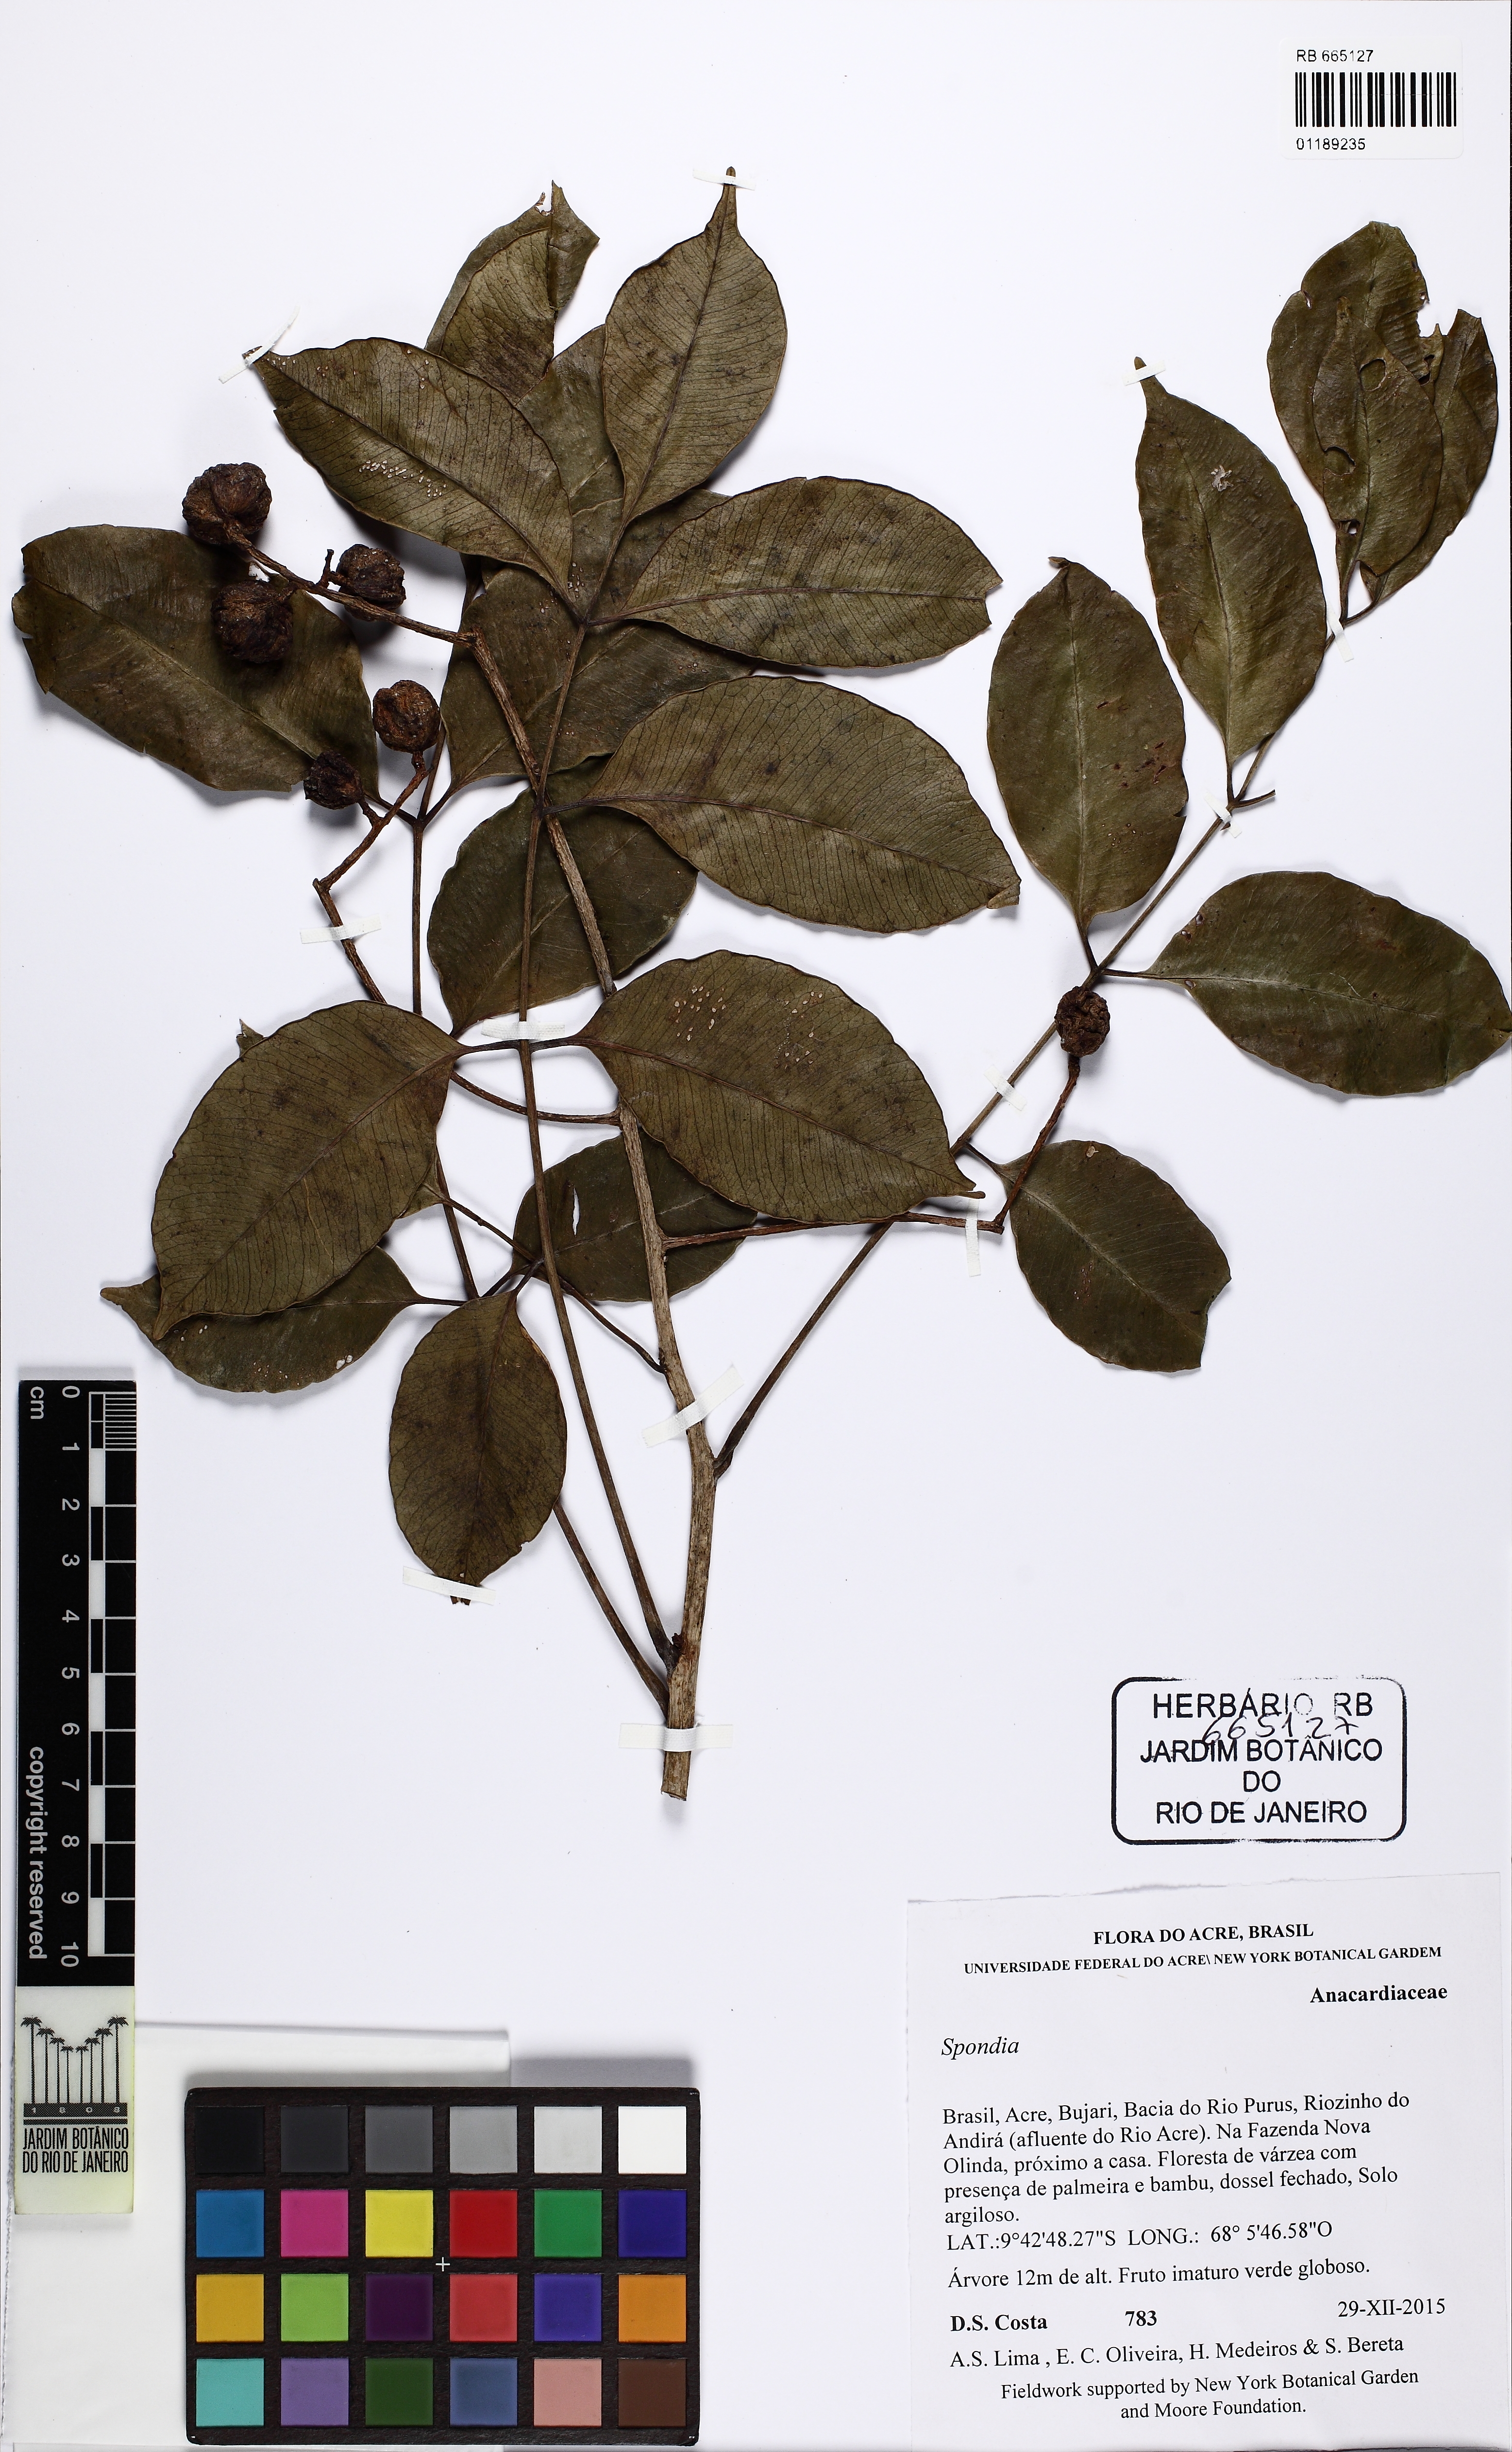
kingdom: Plantae
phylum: Tracheophyta
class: Magnoliopsida
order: Sapindales
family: Anacardiaceae
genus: Spondias
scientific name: Spondias
